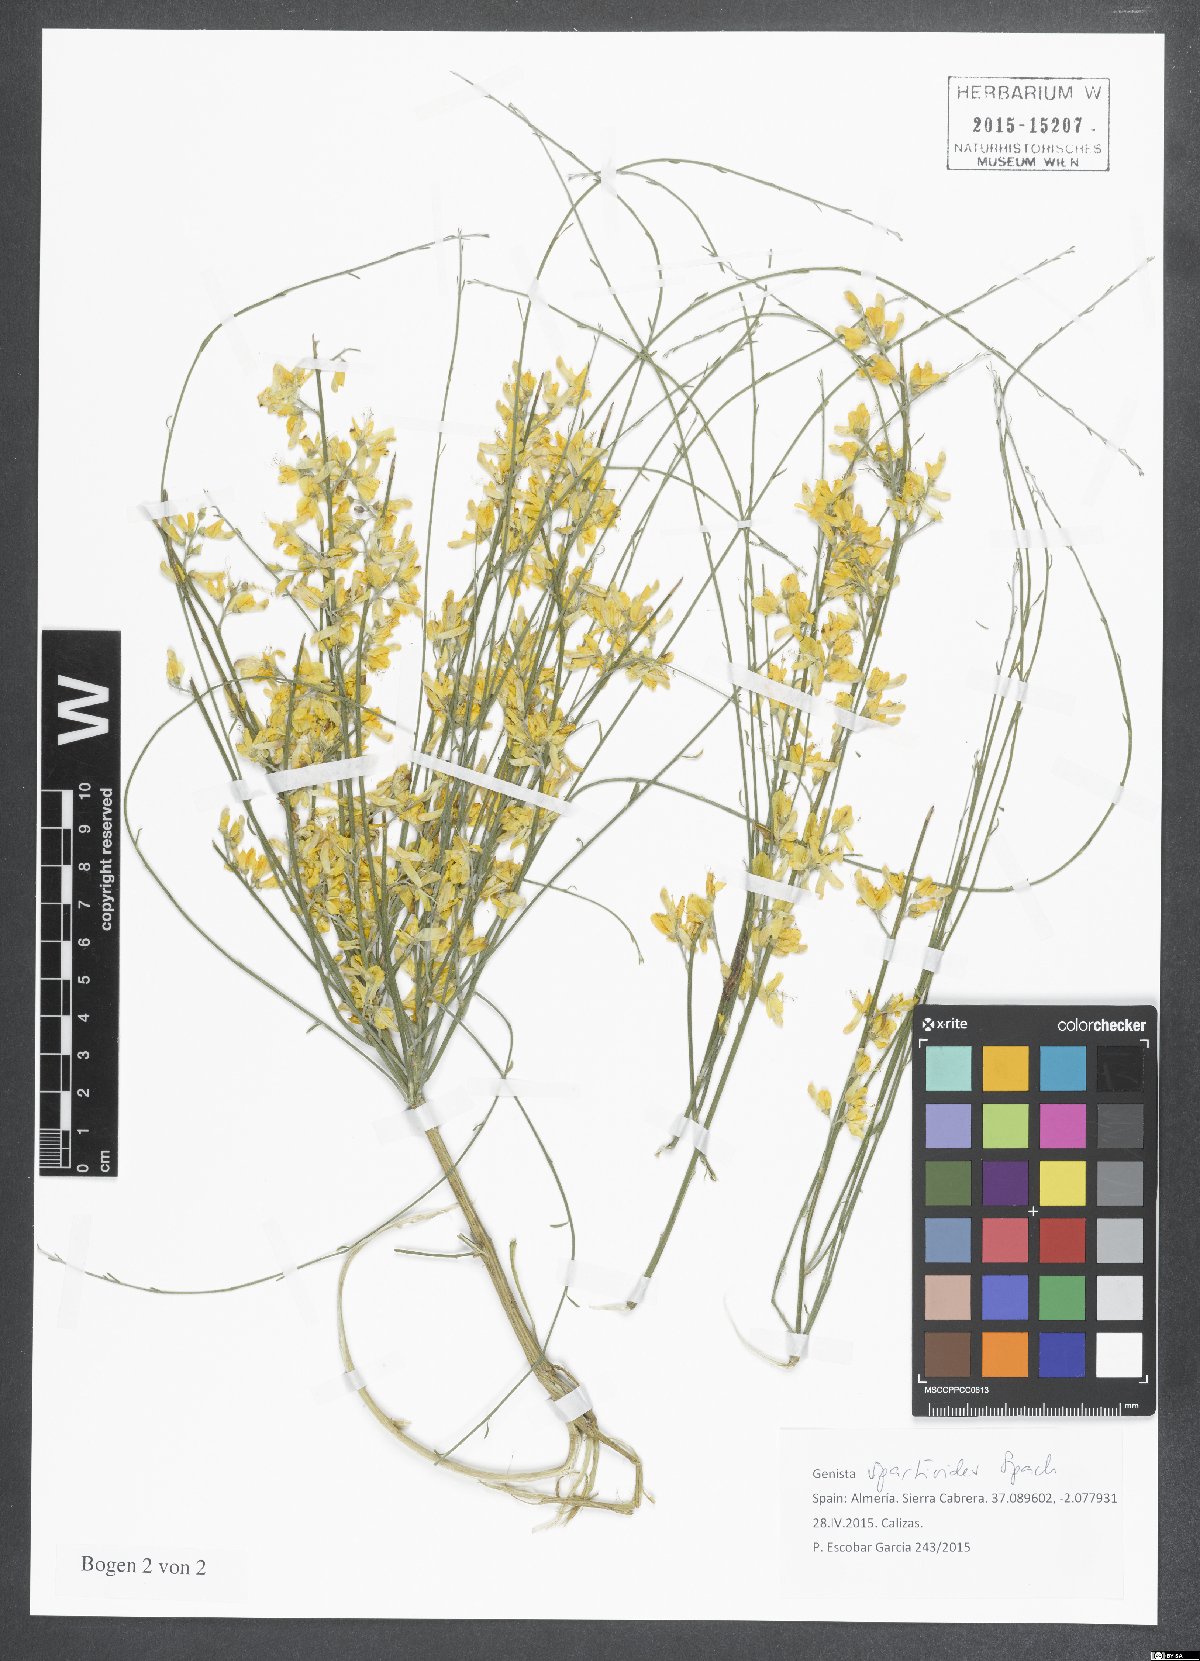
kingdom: Plantae
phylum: Tracheophyta
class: Magnoliopsida
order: Fabales
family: Fabaceae
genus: Genista
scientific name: Genista spartioides
